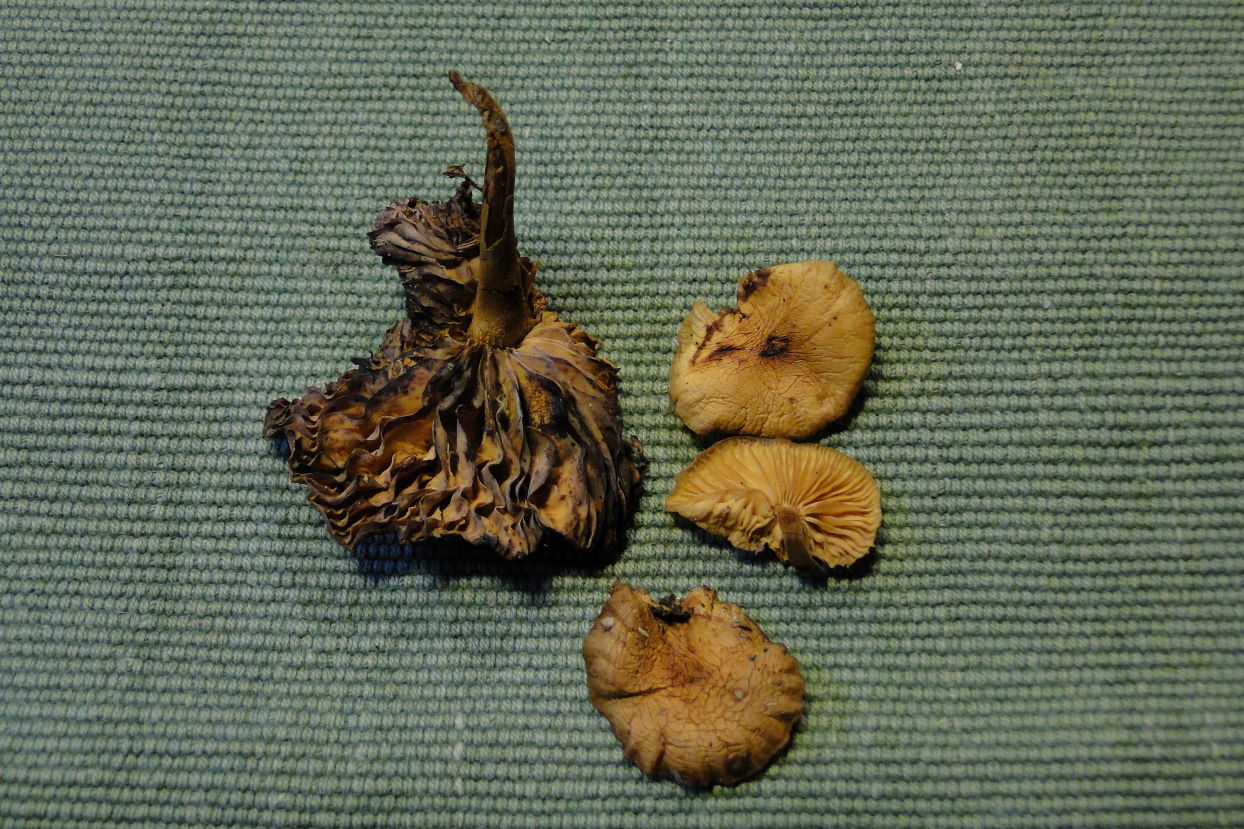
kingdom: Fungi
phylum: Basidiomycota
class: Agaricomycetes
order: Agaricales
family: Physalacriaceae
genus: Flammulina
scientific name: Flammulina elastica
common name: pile-fløjlsfod
